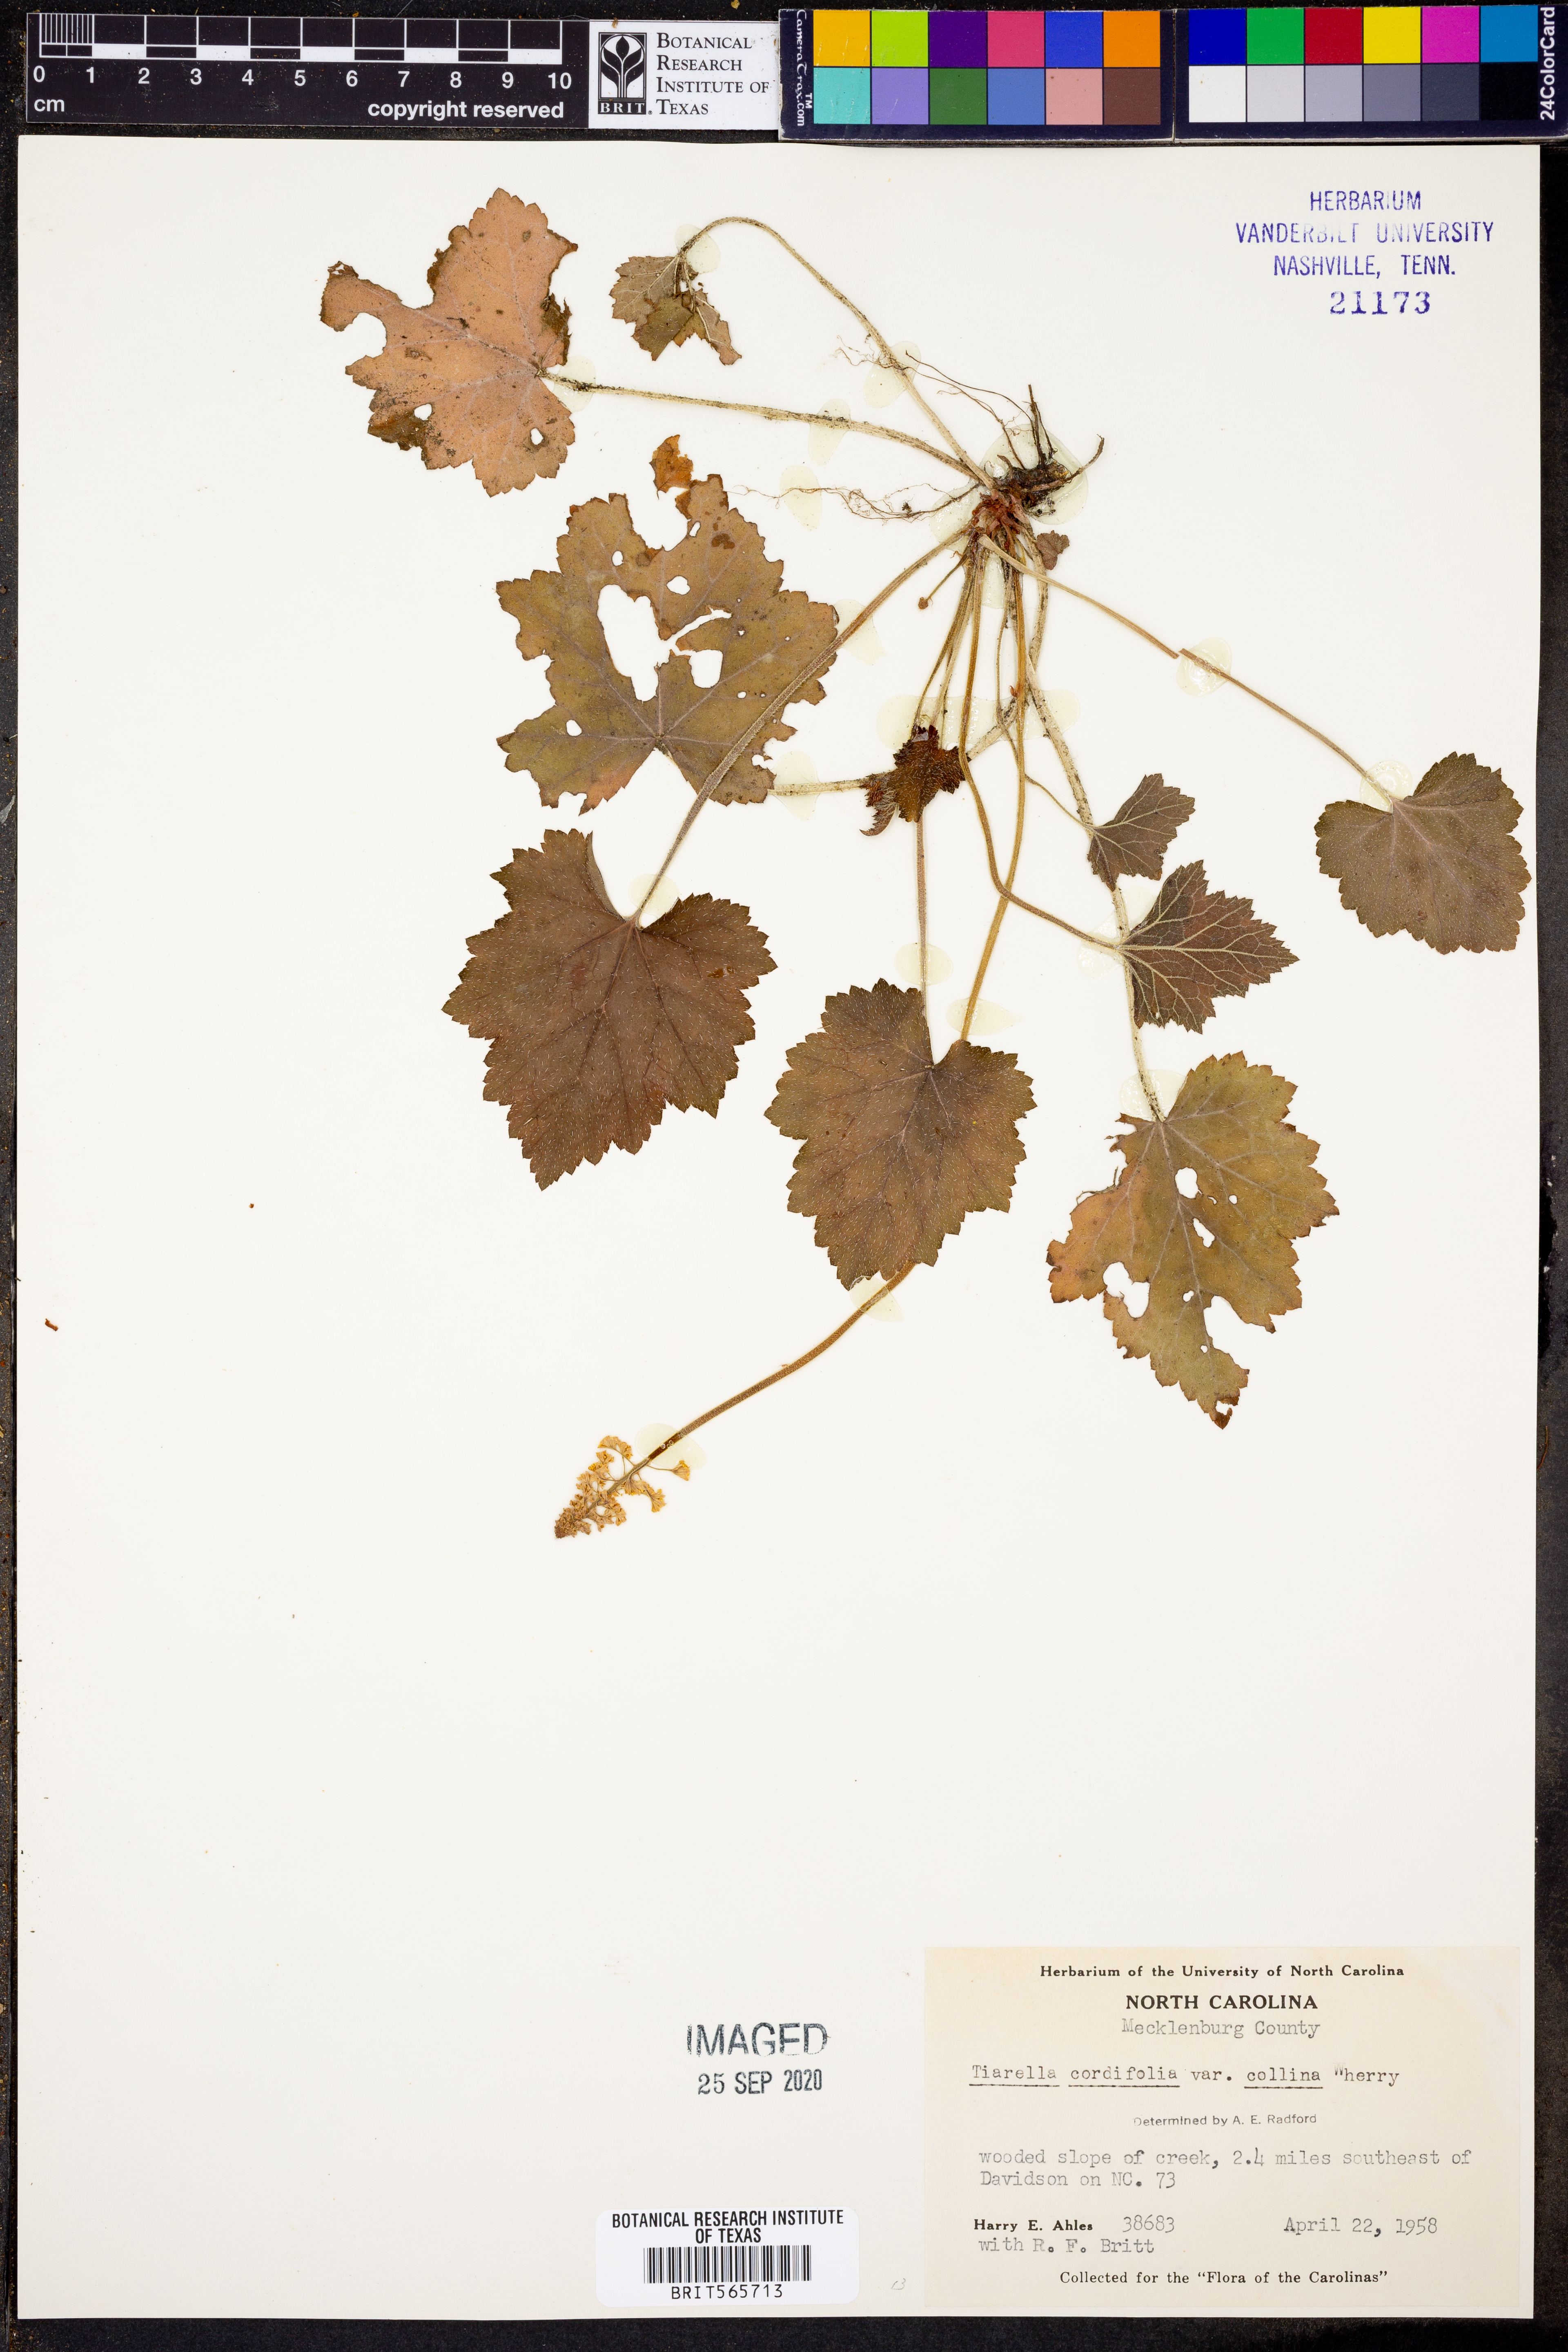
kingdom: Plantae
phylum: Tracheophyta
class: Magnoliopsida
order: Saxifragales
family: Saxifragaceae
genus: Tiarella
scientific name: Tiarella cordifolia
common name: Foamflower
